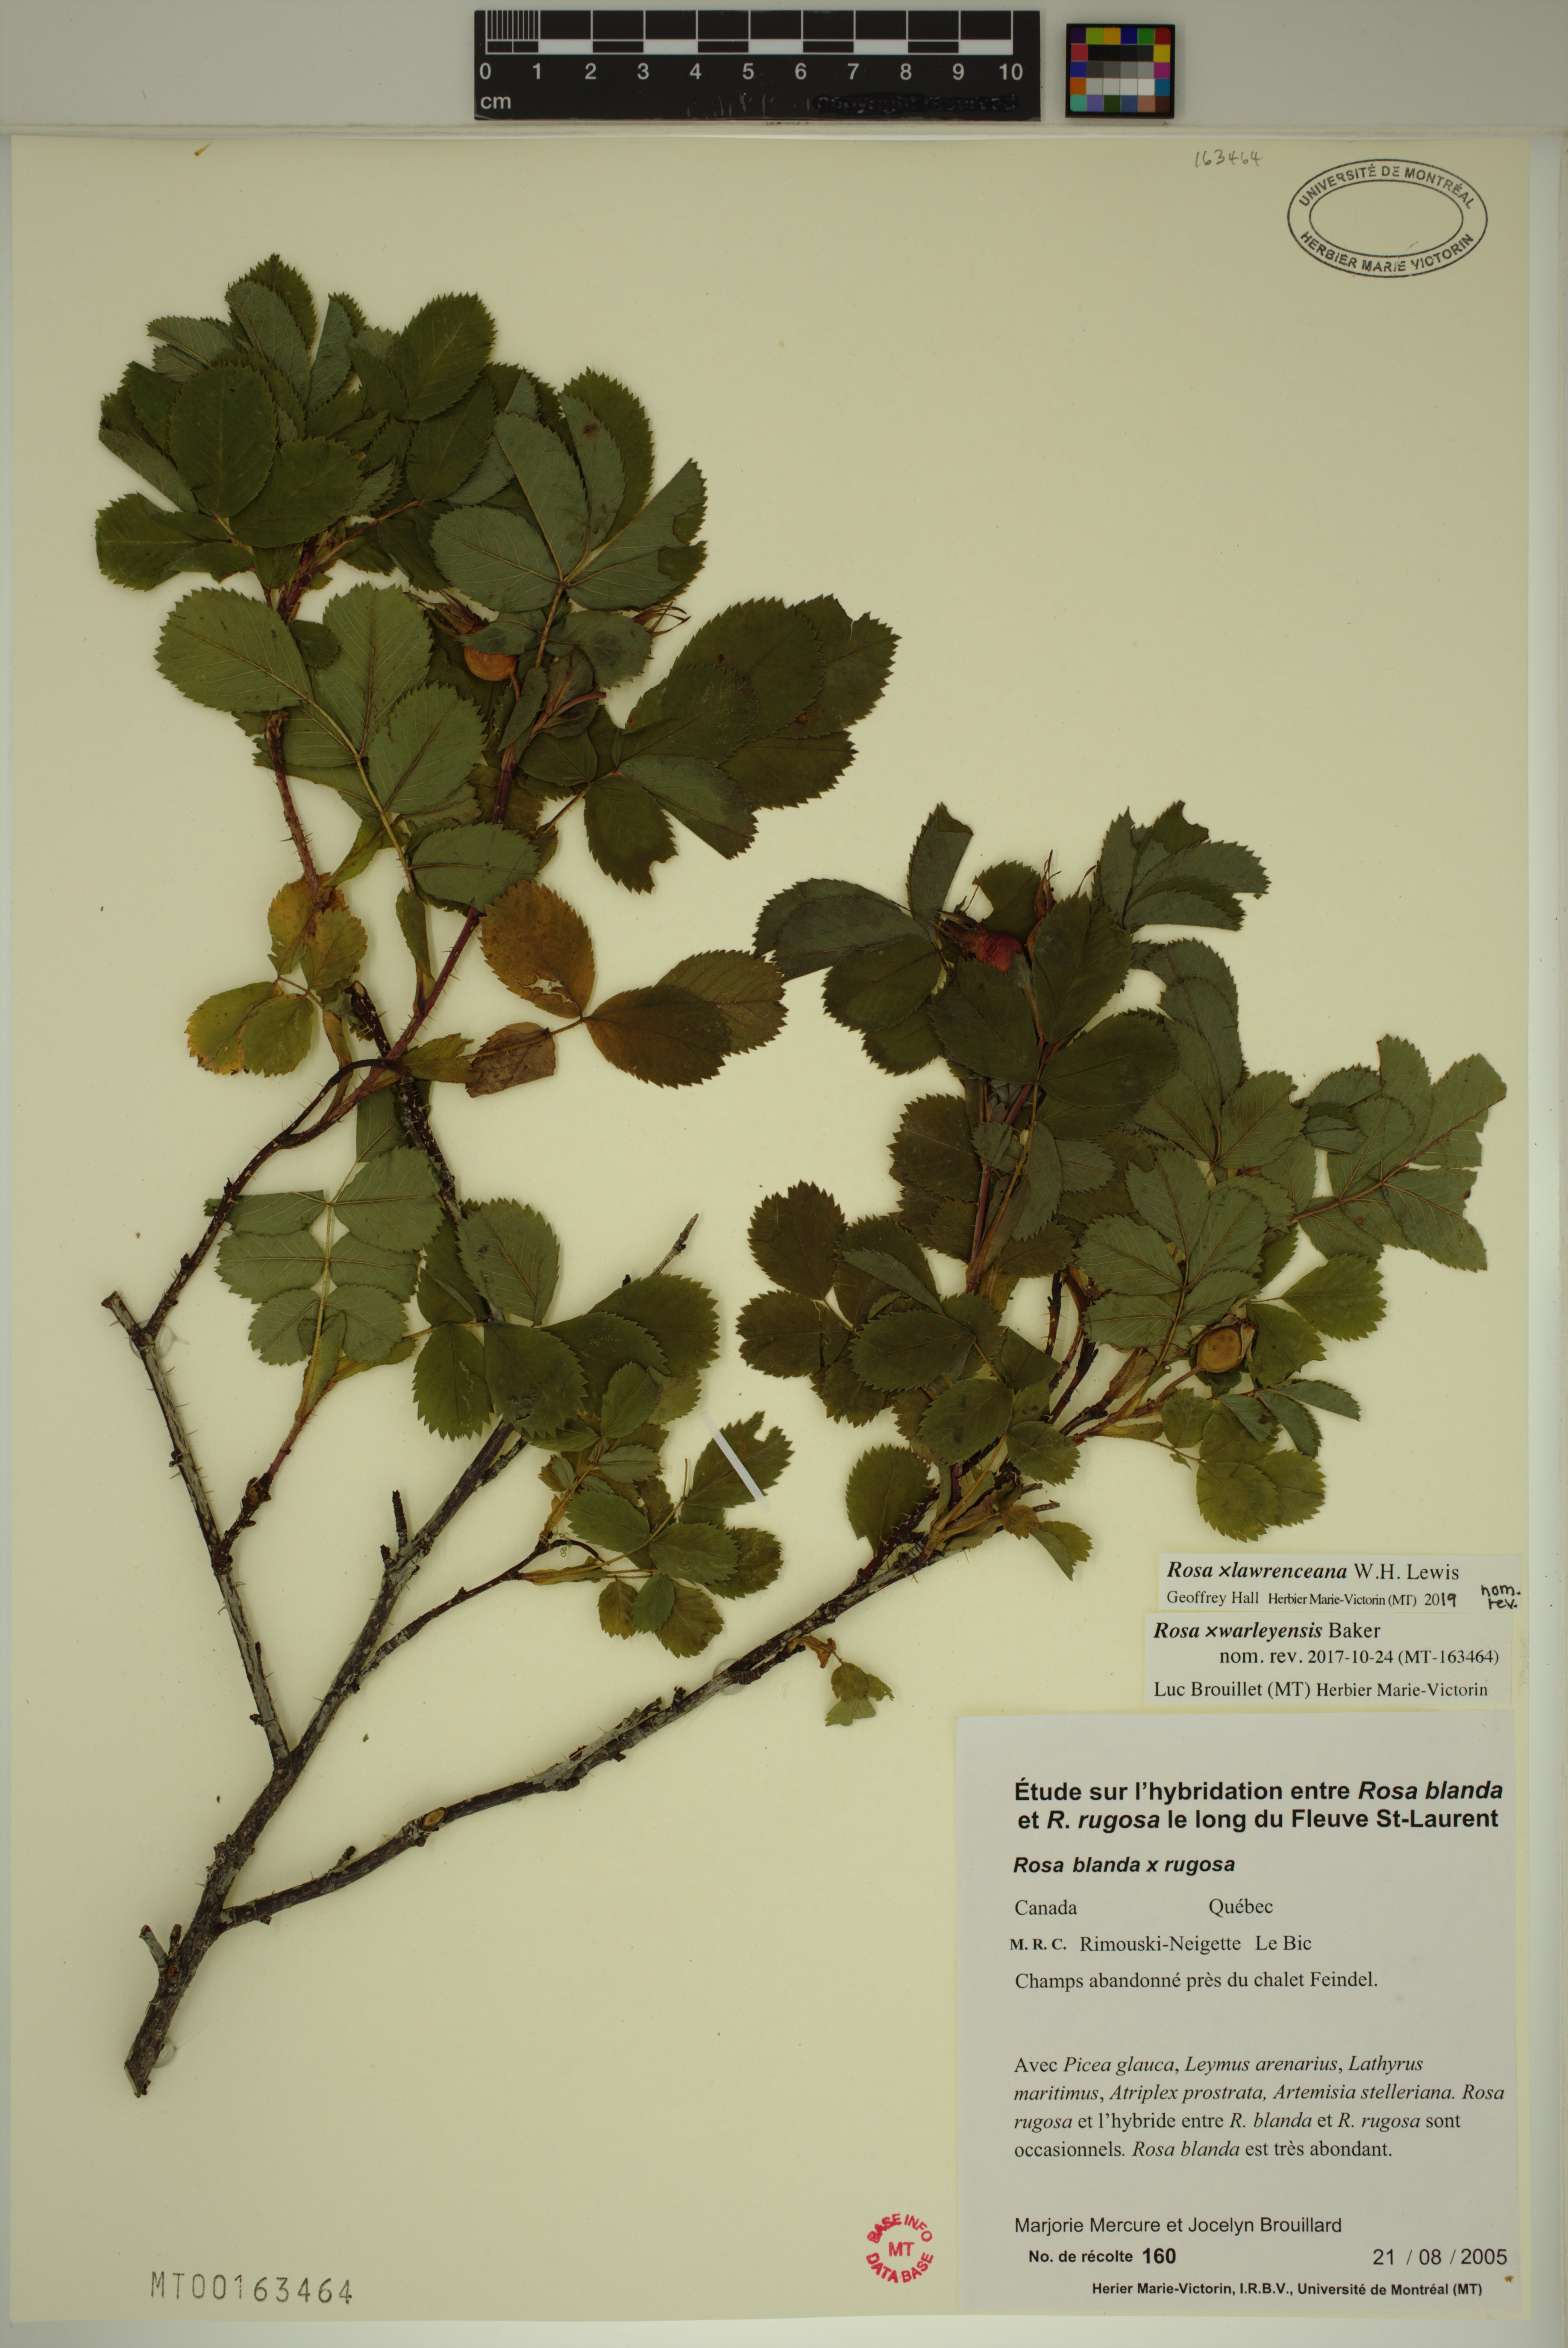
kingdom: Plantae
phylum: Tracheophyta
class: Magnoliopsida
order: Rosales
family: Rosaceae
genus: Rosa
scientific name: Rosa chinensis
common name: China rose
